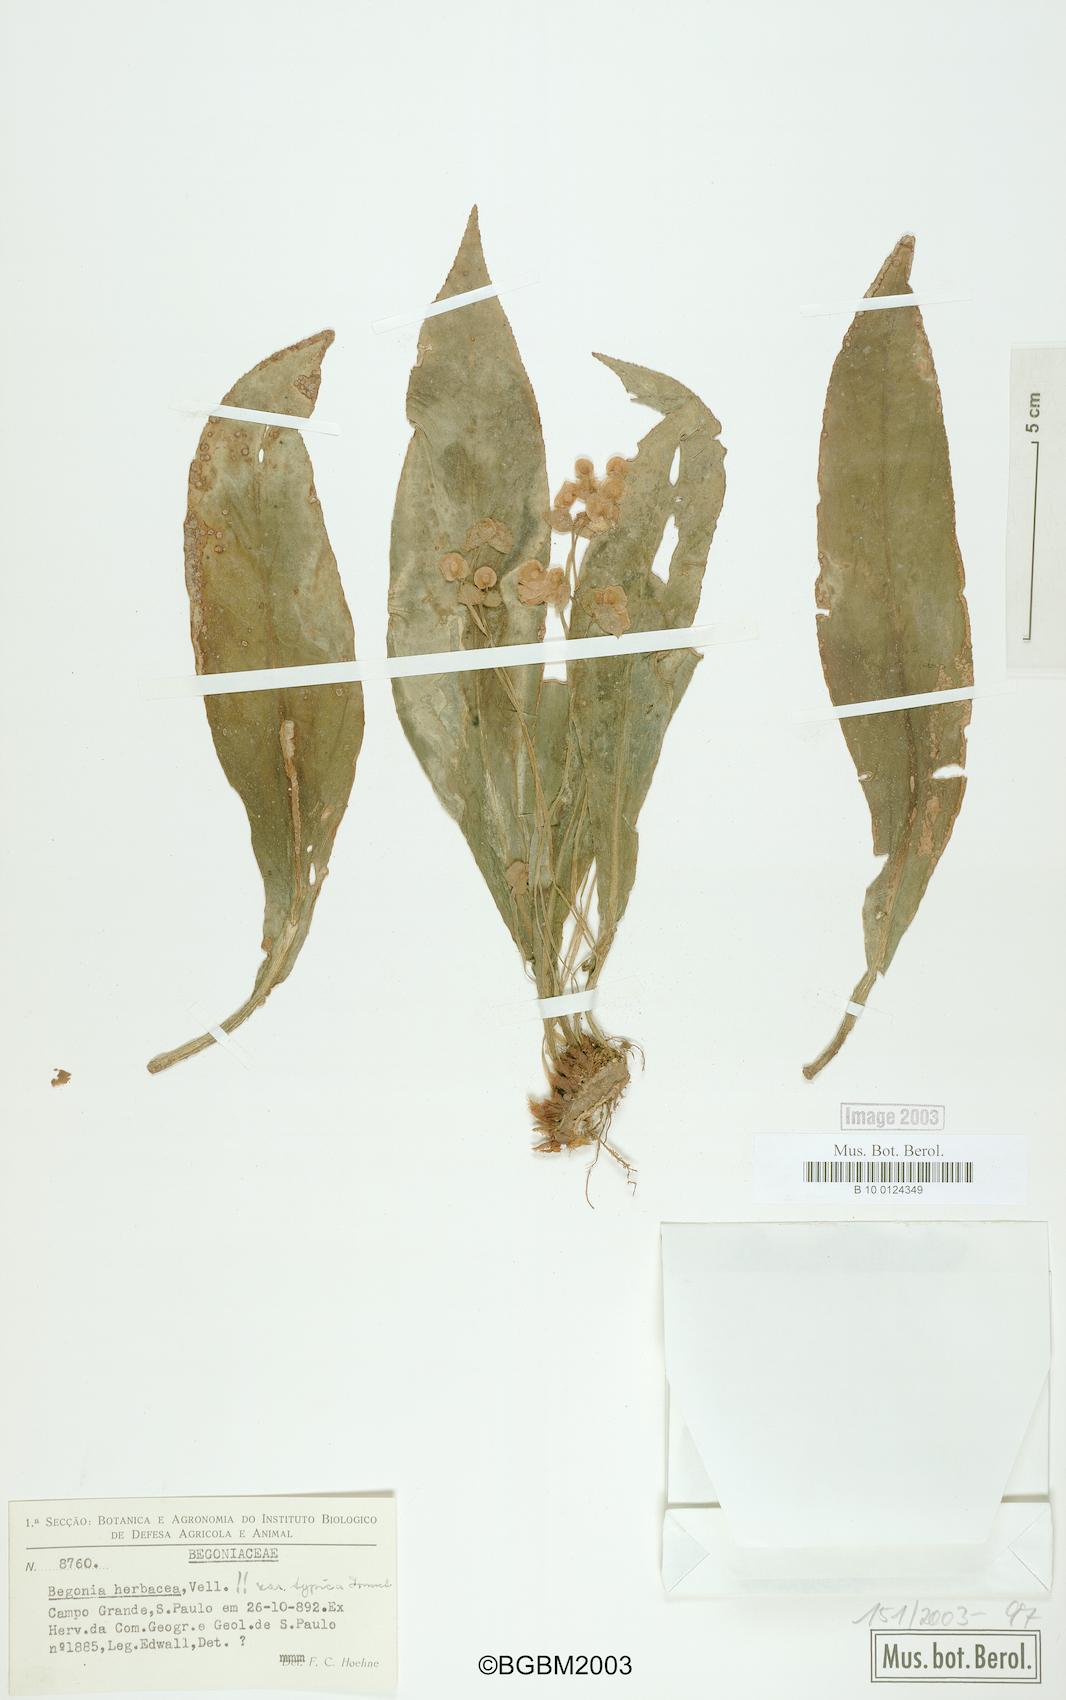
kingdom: Plantae
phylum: Tracheophyta
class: Magnoliopsida
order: Cucurbitales
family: Begoniaceae
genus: Begonia
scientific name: Begonia herbacea
